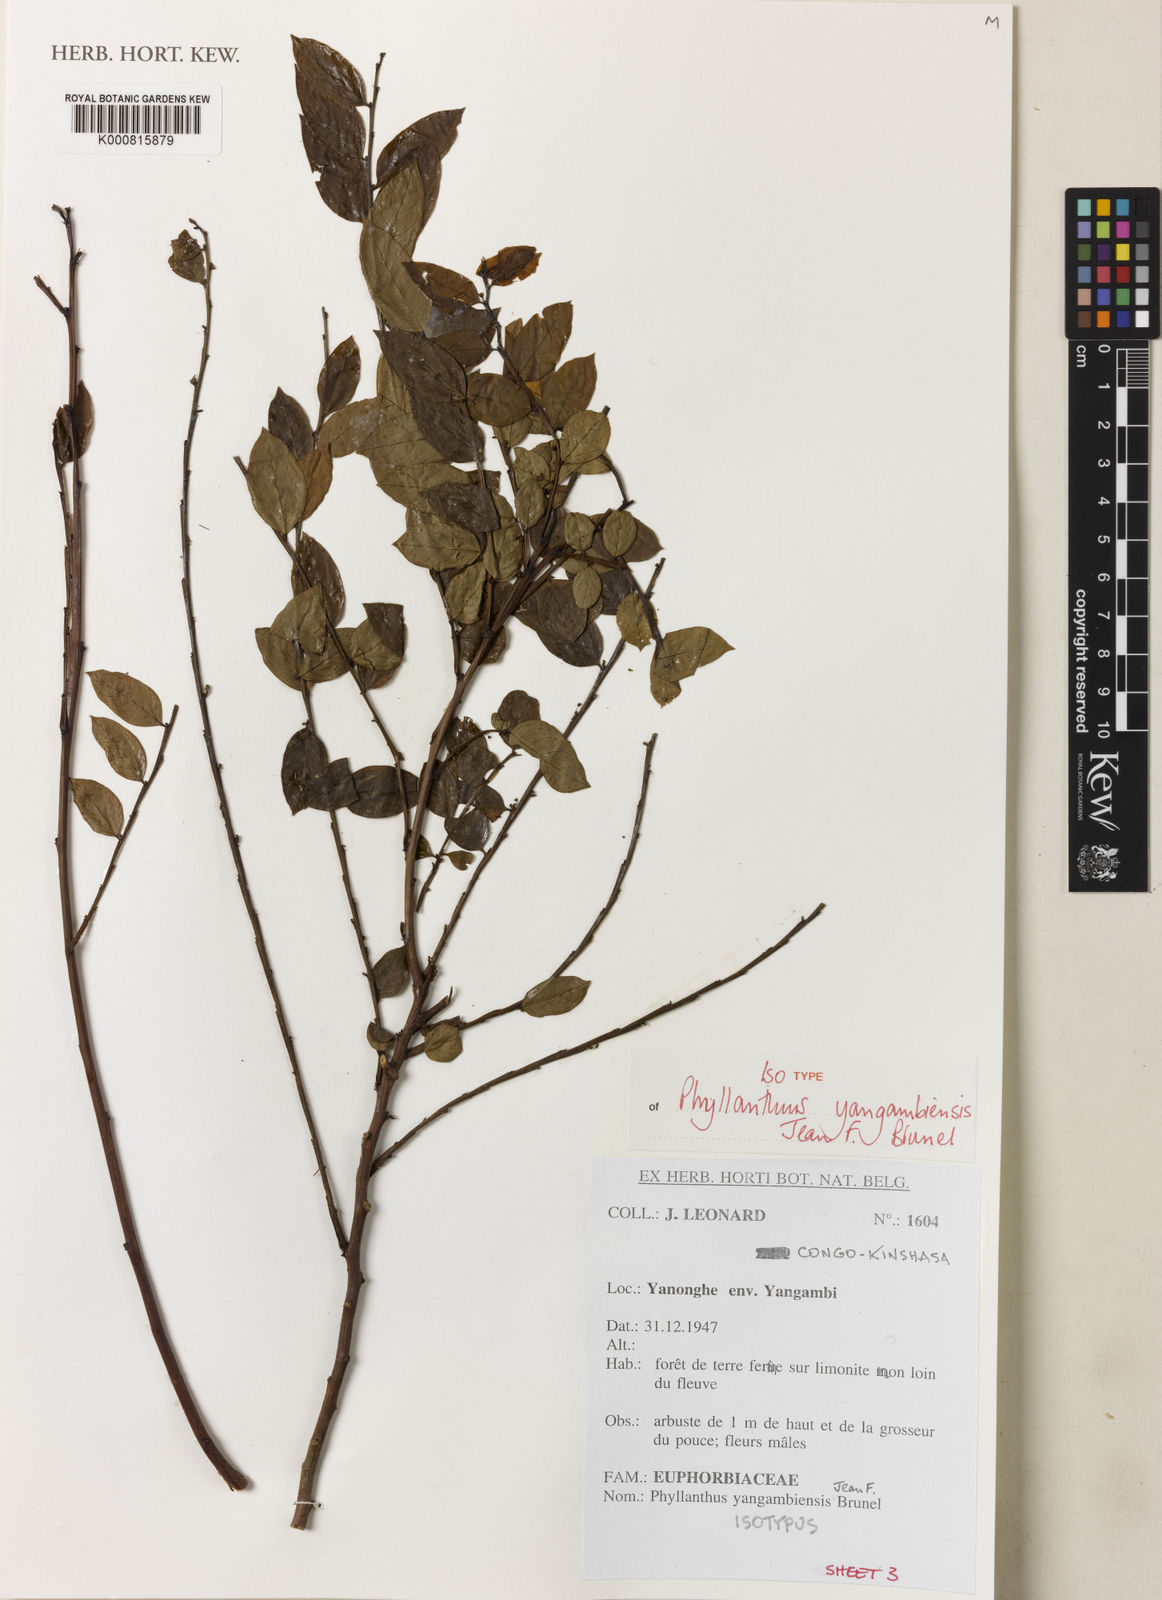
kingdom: Plantae
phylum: Tracheophyta
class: Magnoliopsida
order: Malpighiales
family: Phyllanthaceae
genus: Phyllanthus
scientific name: Phyllanthus yangambiensis
